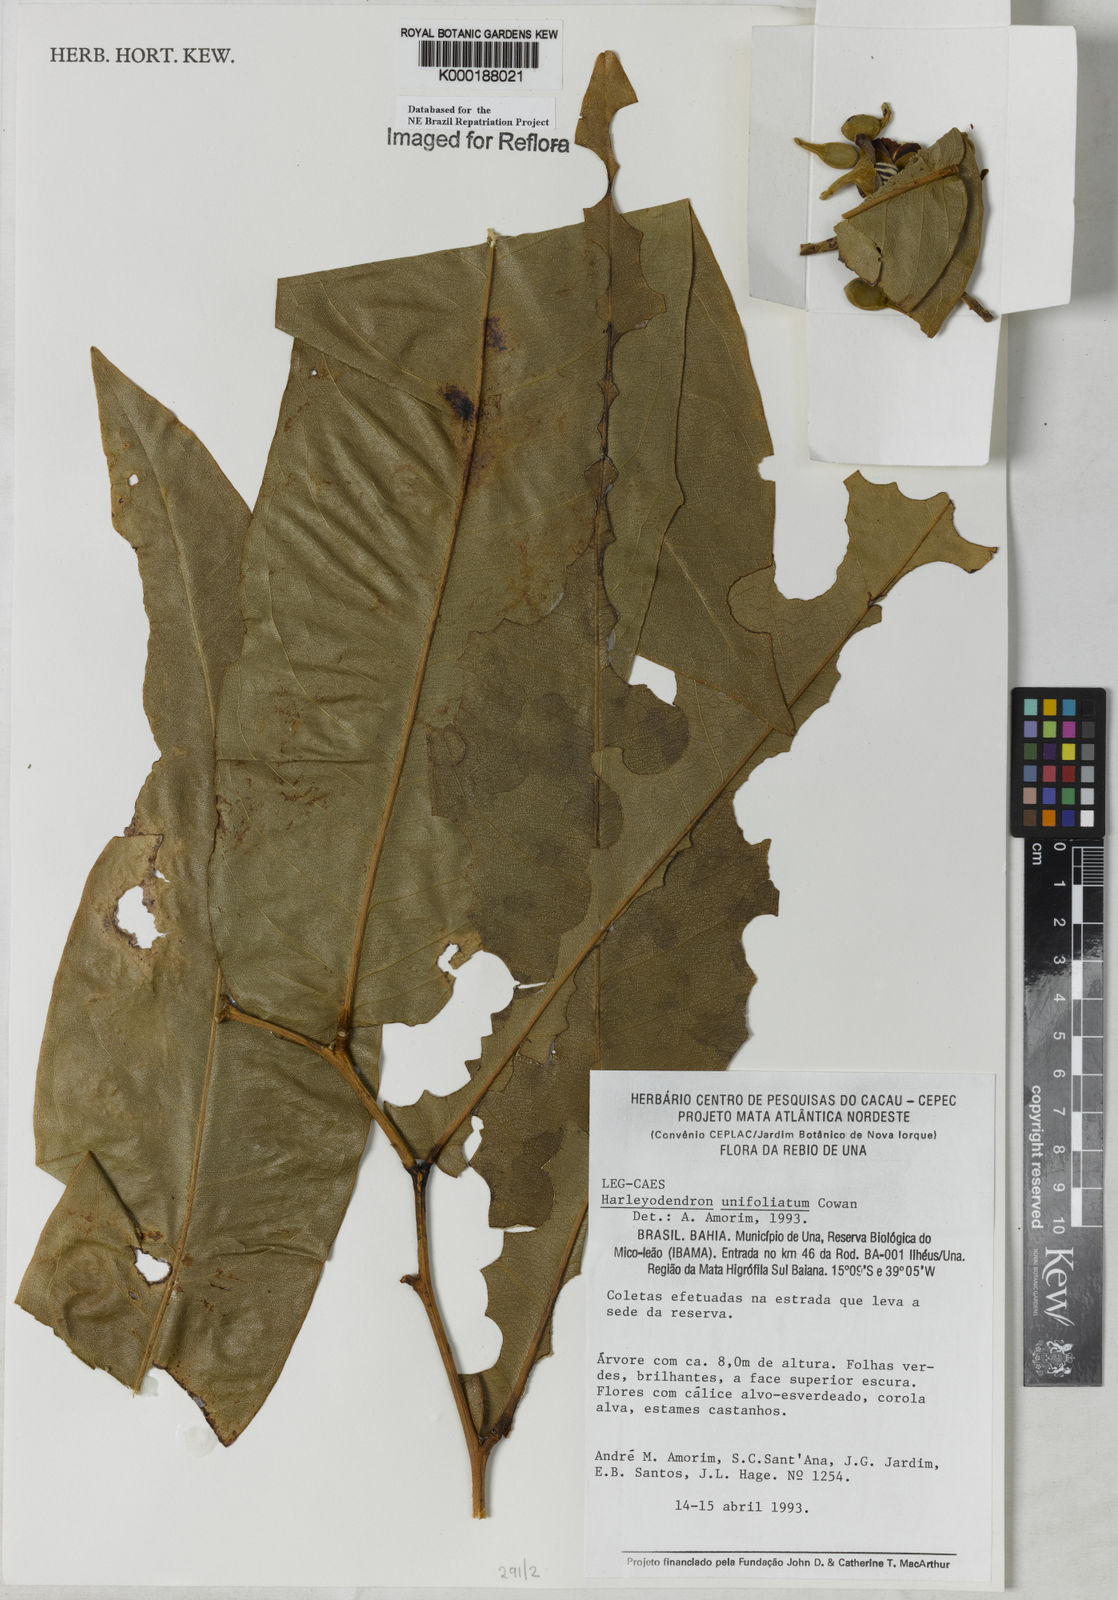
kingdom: Plantae
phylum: Tracheophyta
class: Magnoliopsida
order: Fabales
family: Fabaceae
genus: Harleyodendron
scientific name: Harleyodendron unifoliolatum
